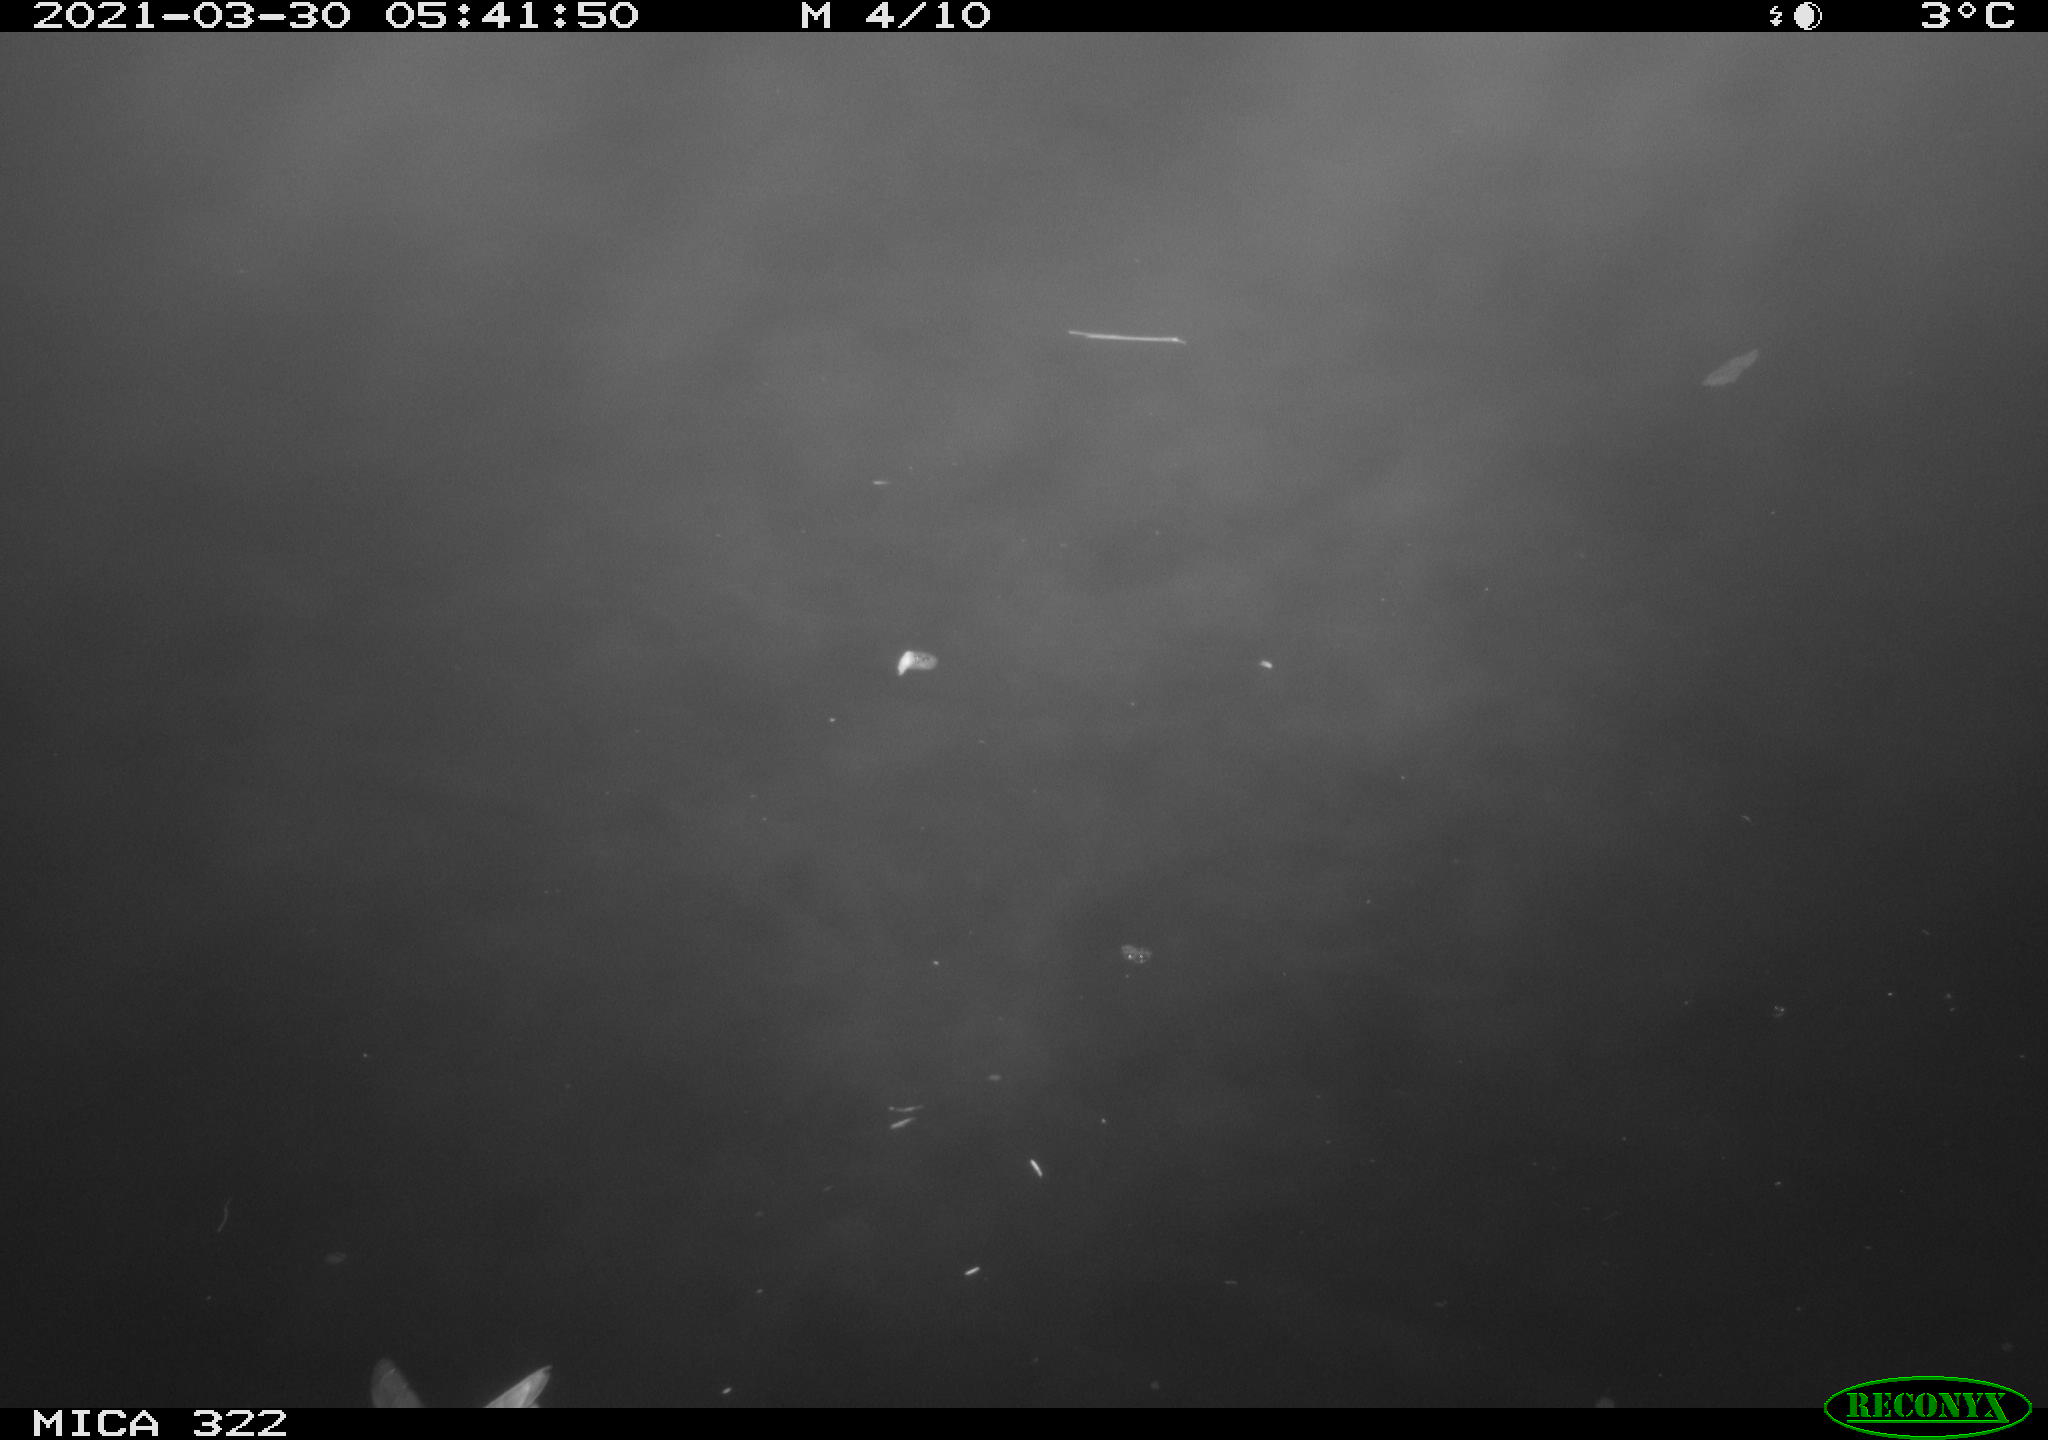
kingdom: Animalia
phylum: Chordata
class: Aves
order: Anseriformes
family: Anatidae
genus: Anas
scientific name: Anas platyrhynchos
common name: Mallard
